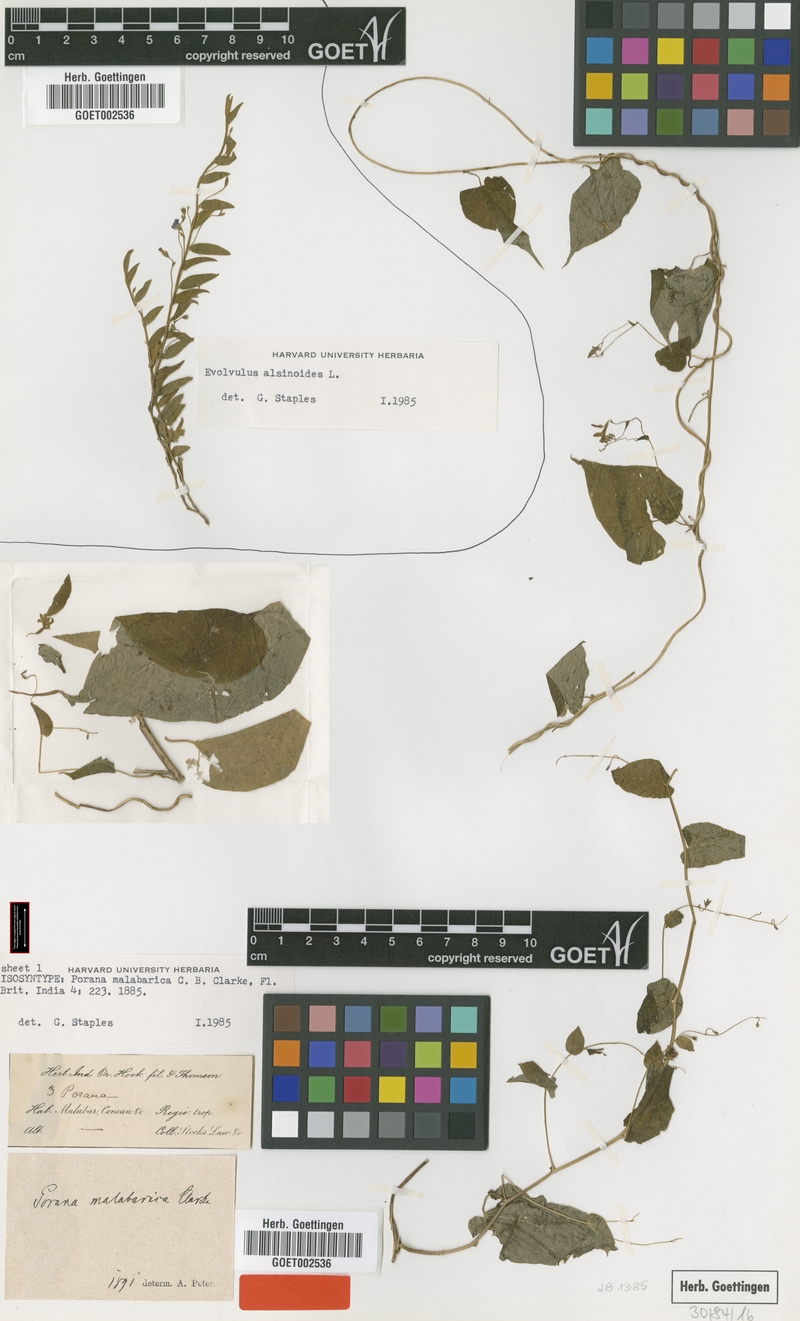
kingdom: Plantae
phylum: Tracheophyta
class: Magnoliopsida
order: Solanales
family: Convolvulaceae
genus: Dinetus
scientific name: Dinetus malabaricus
